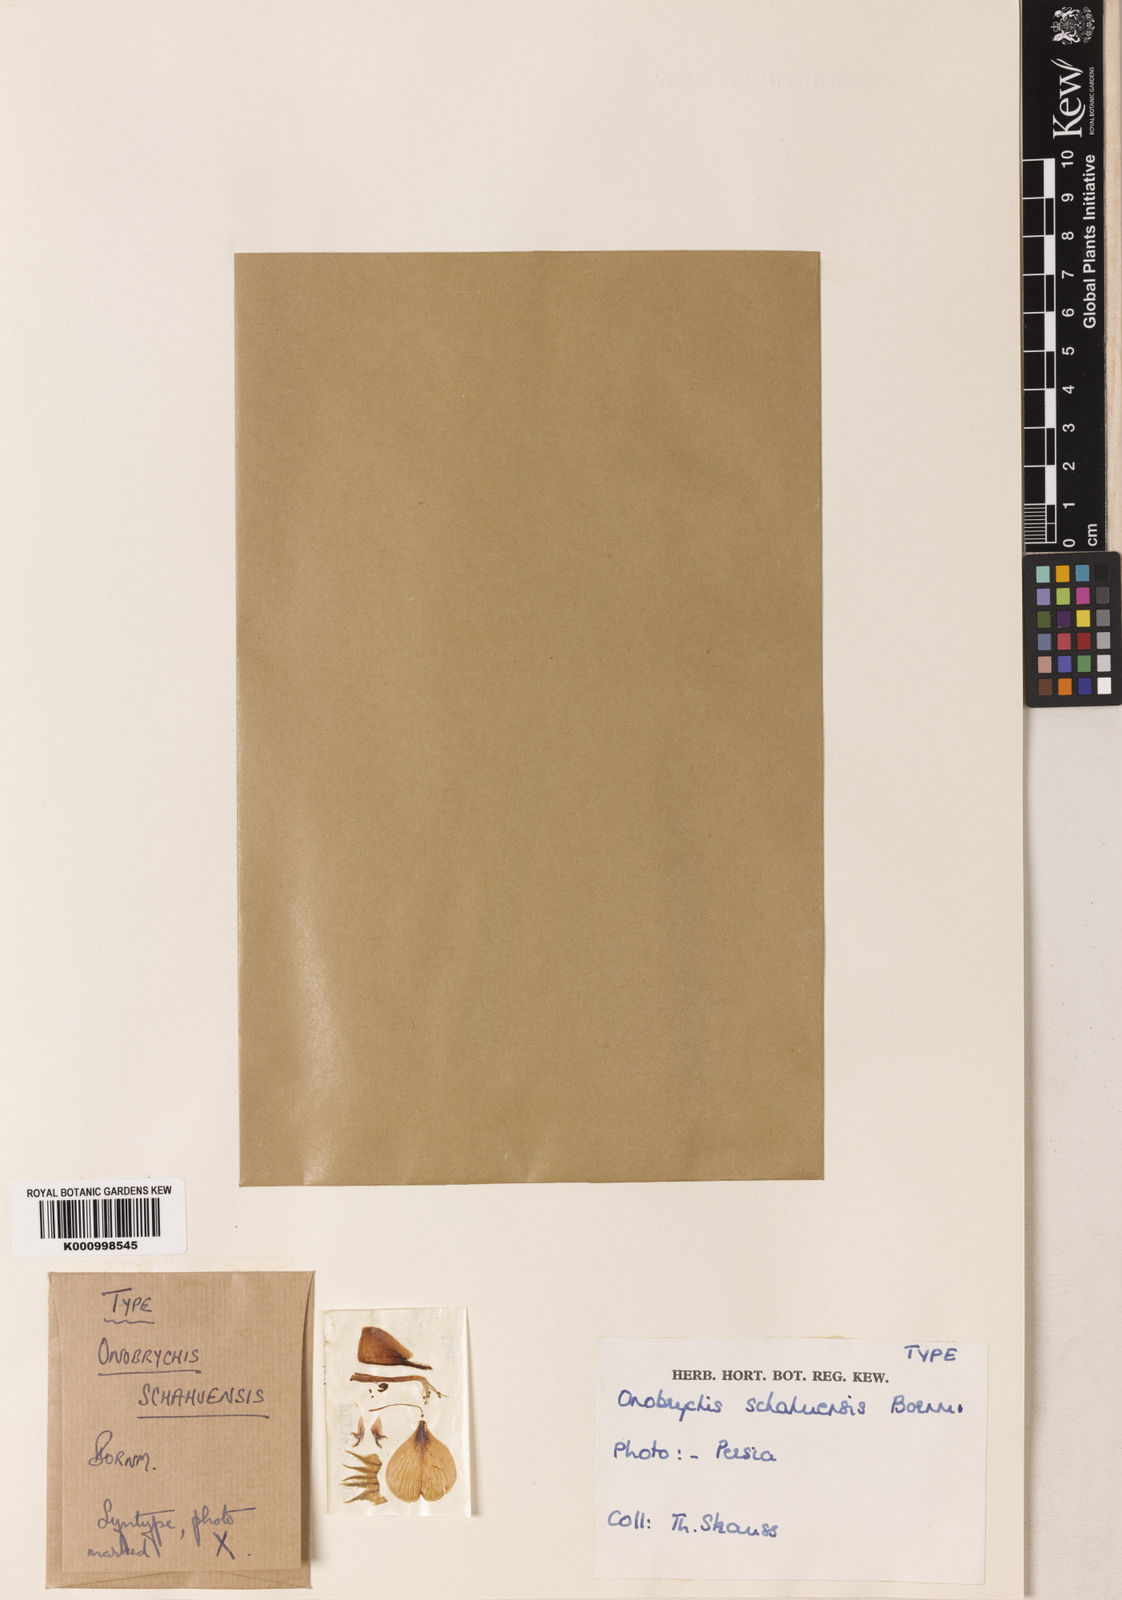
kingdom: Plantae
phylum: Tracheophyta
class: Magnoliopsida
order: Fabales
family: Fabaceae
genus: Onobrychis
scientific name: Onobrychis schahuensis
